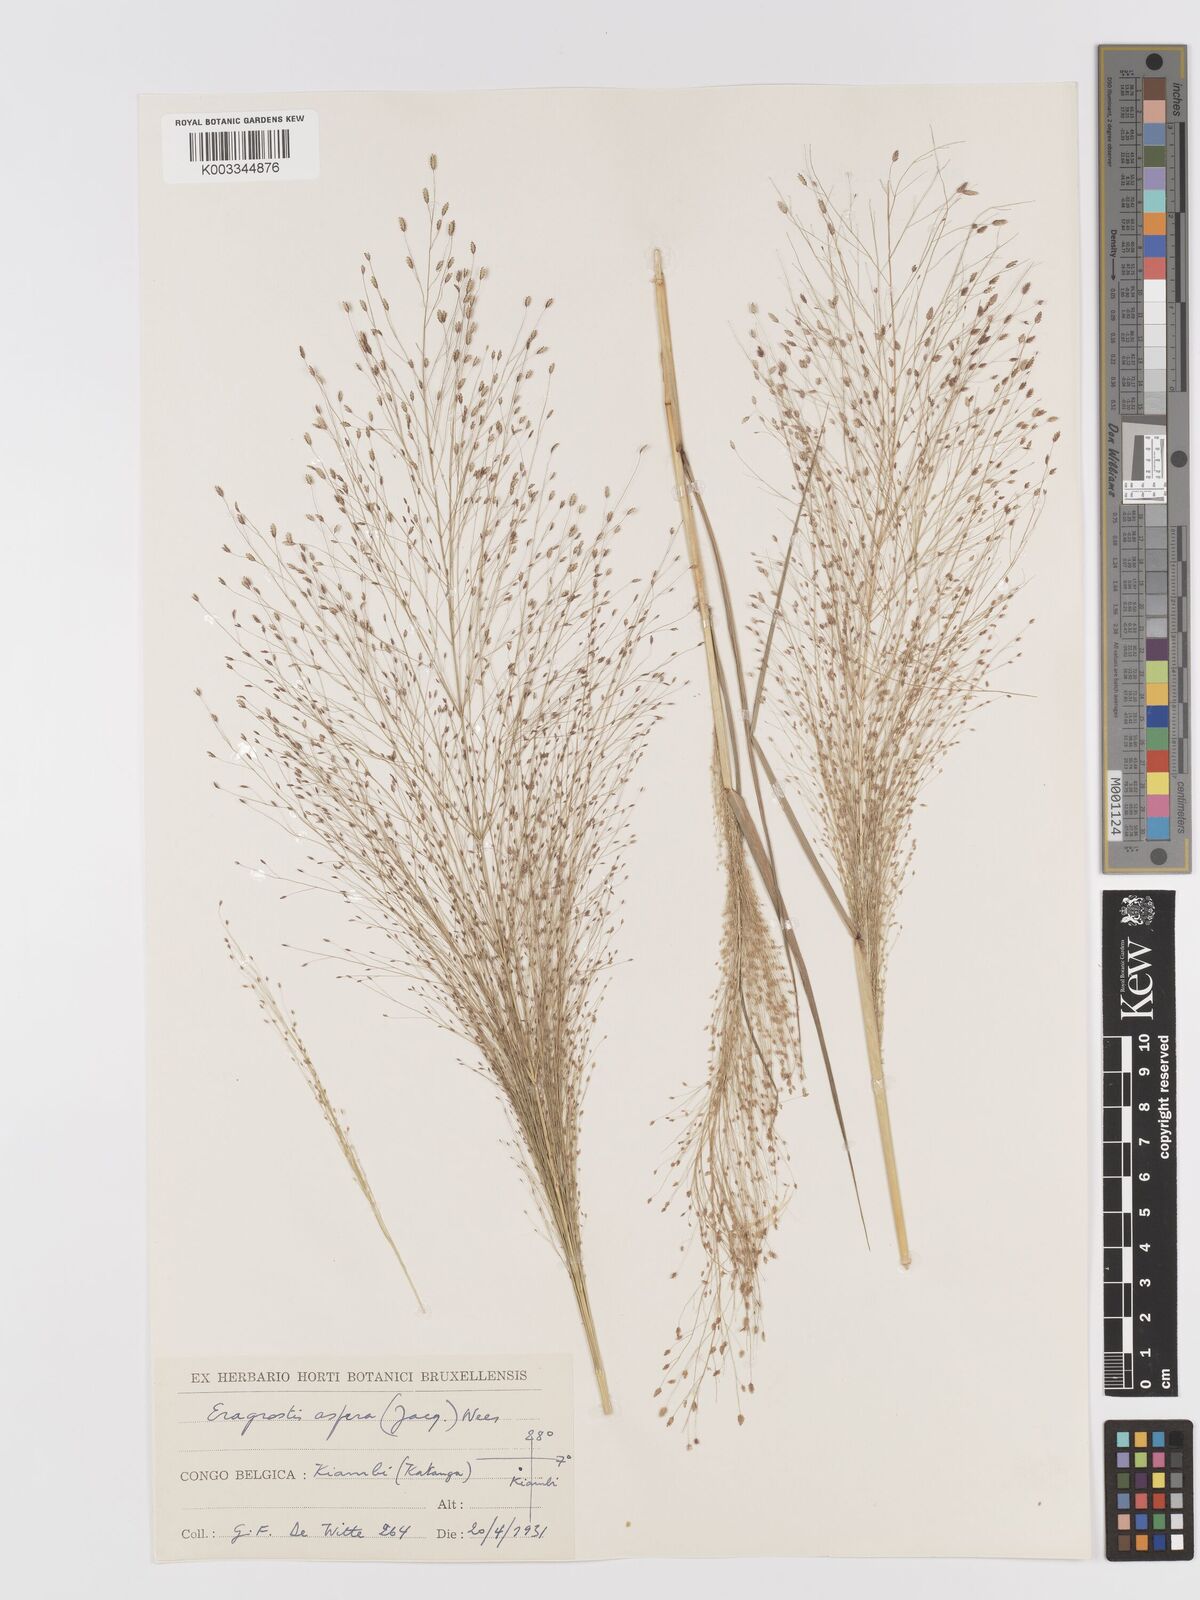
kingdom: Plantae
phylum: Tracheophyta
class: Liliopsida
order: Poales
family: Poaceae
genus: Eragrostis
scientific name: Eragrostis aspera
